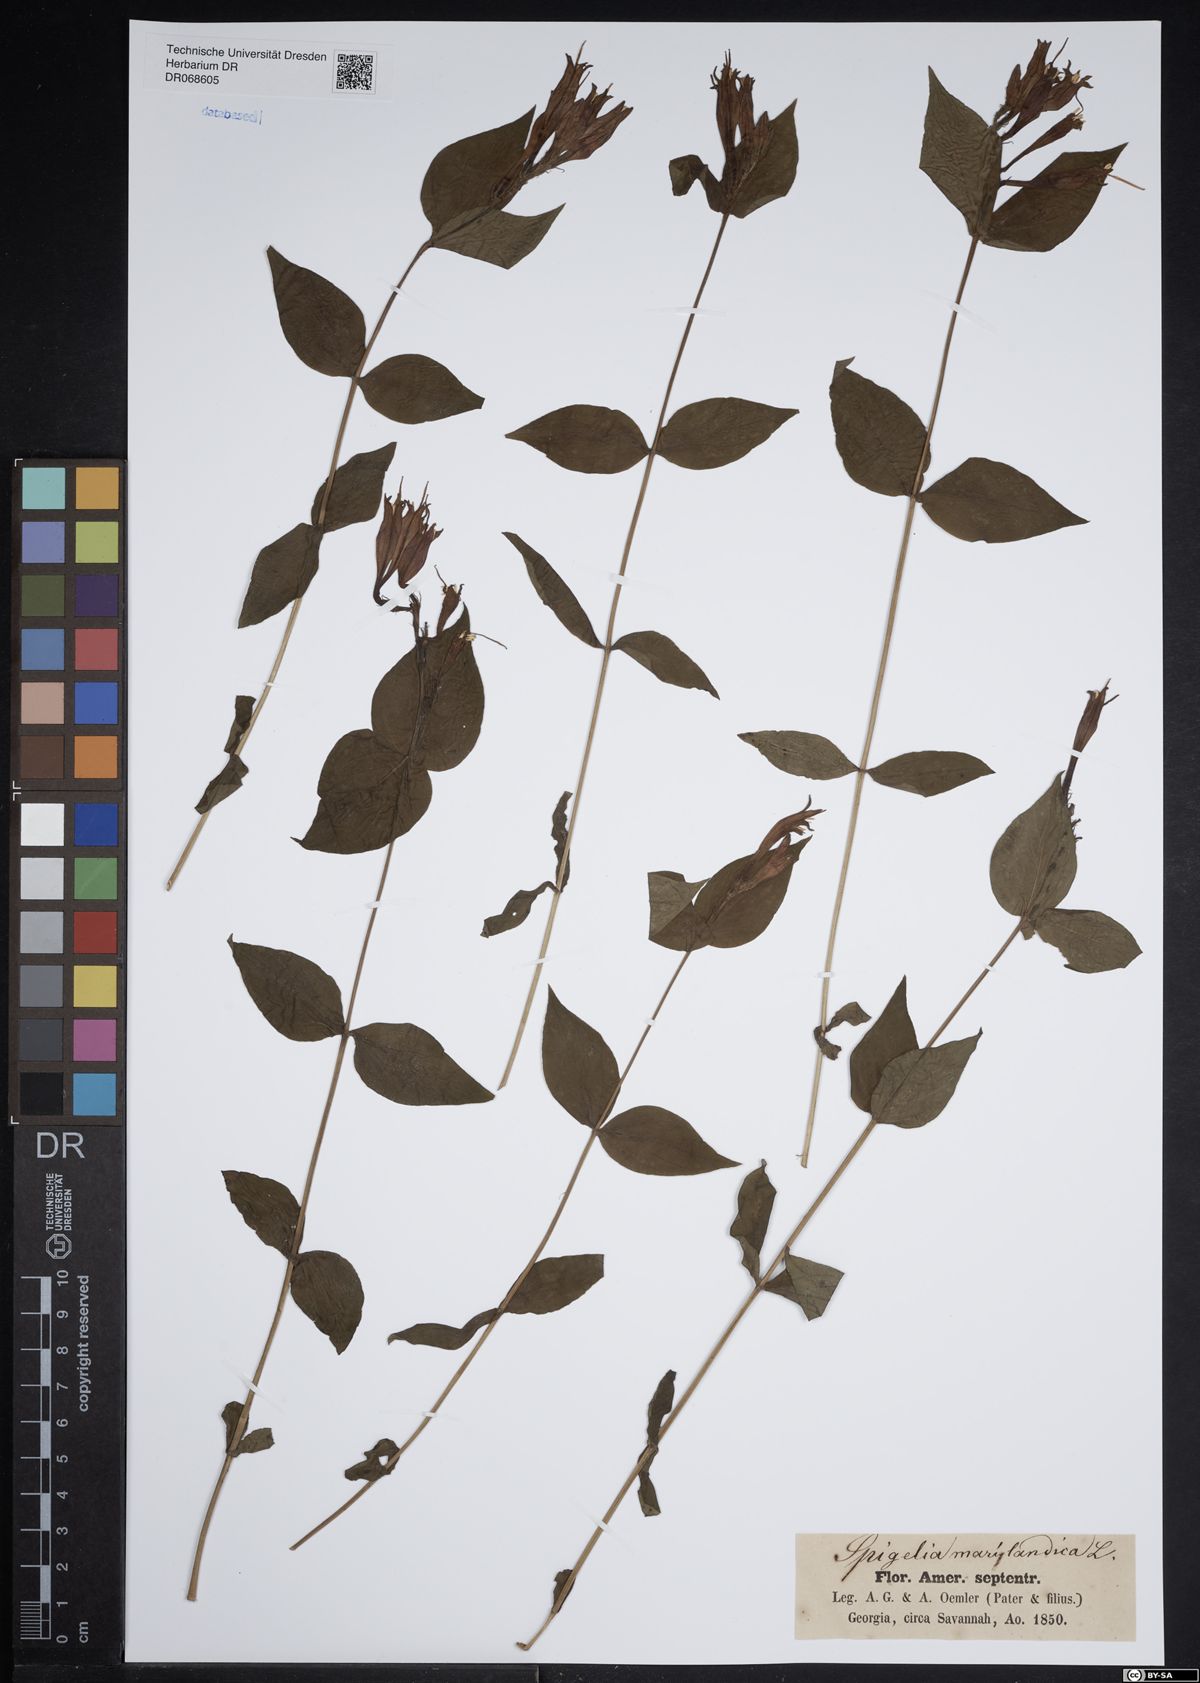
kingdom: Plantae
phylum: Tracheophyta
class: Magnoliopsida
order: Gentianales
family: Loganiaceae
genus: Spigelia
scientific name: Spigelia marilandica
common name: Indian-pink
